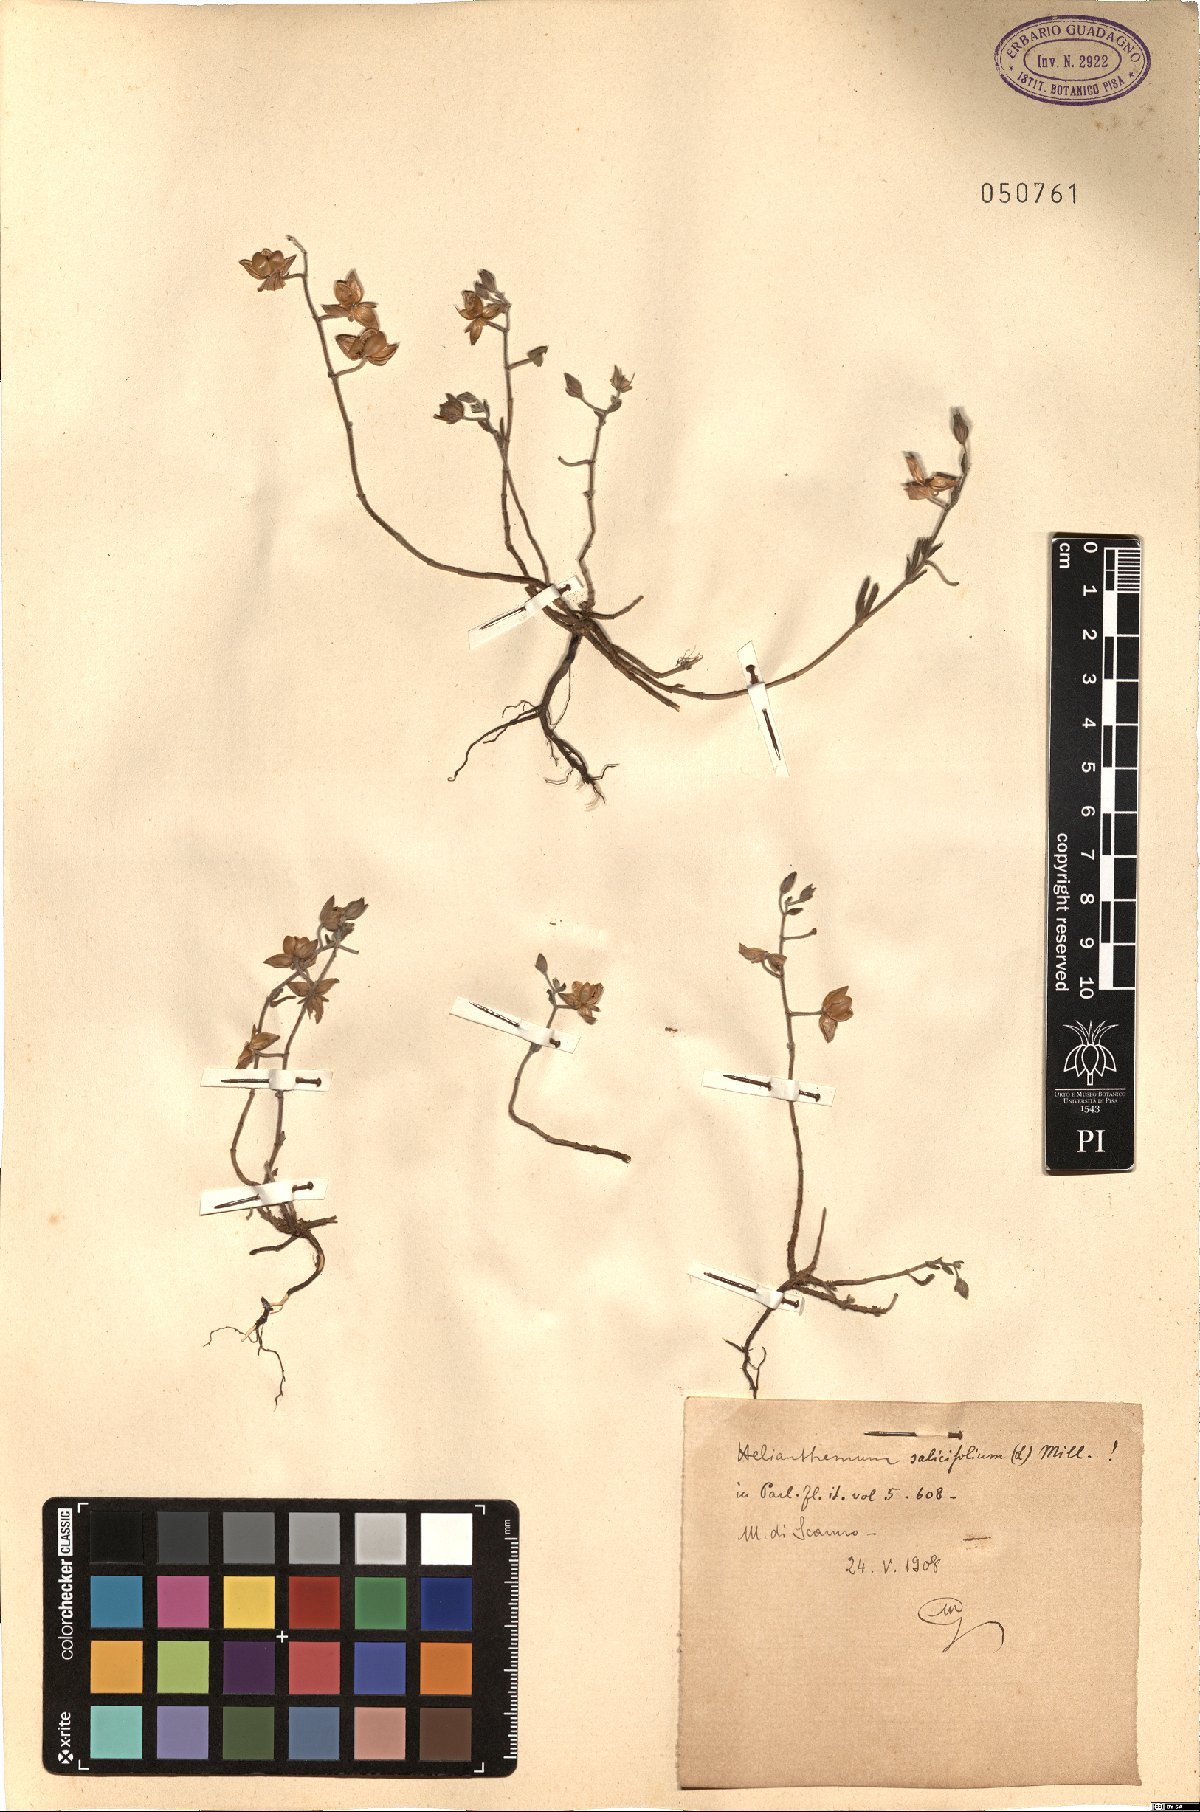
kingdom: Plantae
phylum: Tracheophyta
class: Magnoliopsida
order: Malvales
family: Cistaceae
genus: Helianthemum
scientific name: Helianthemum salicifolium
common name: Willowleaf frostweed
